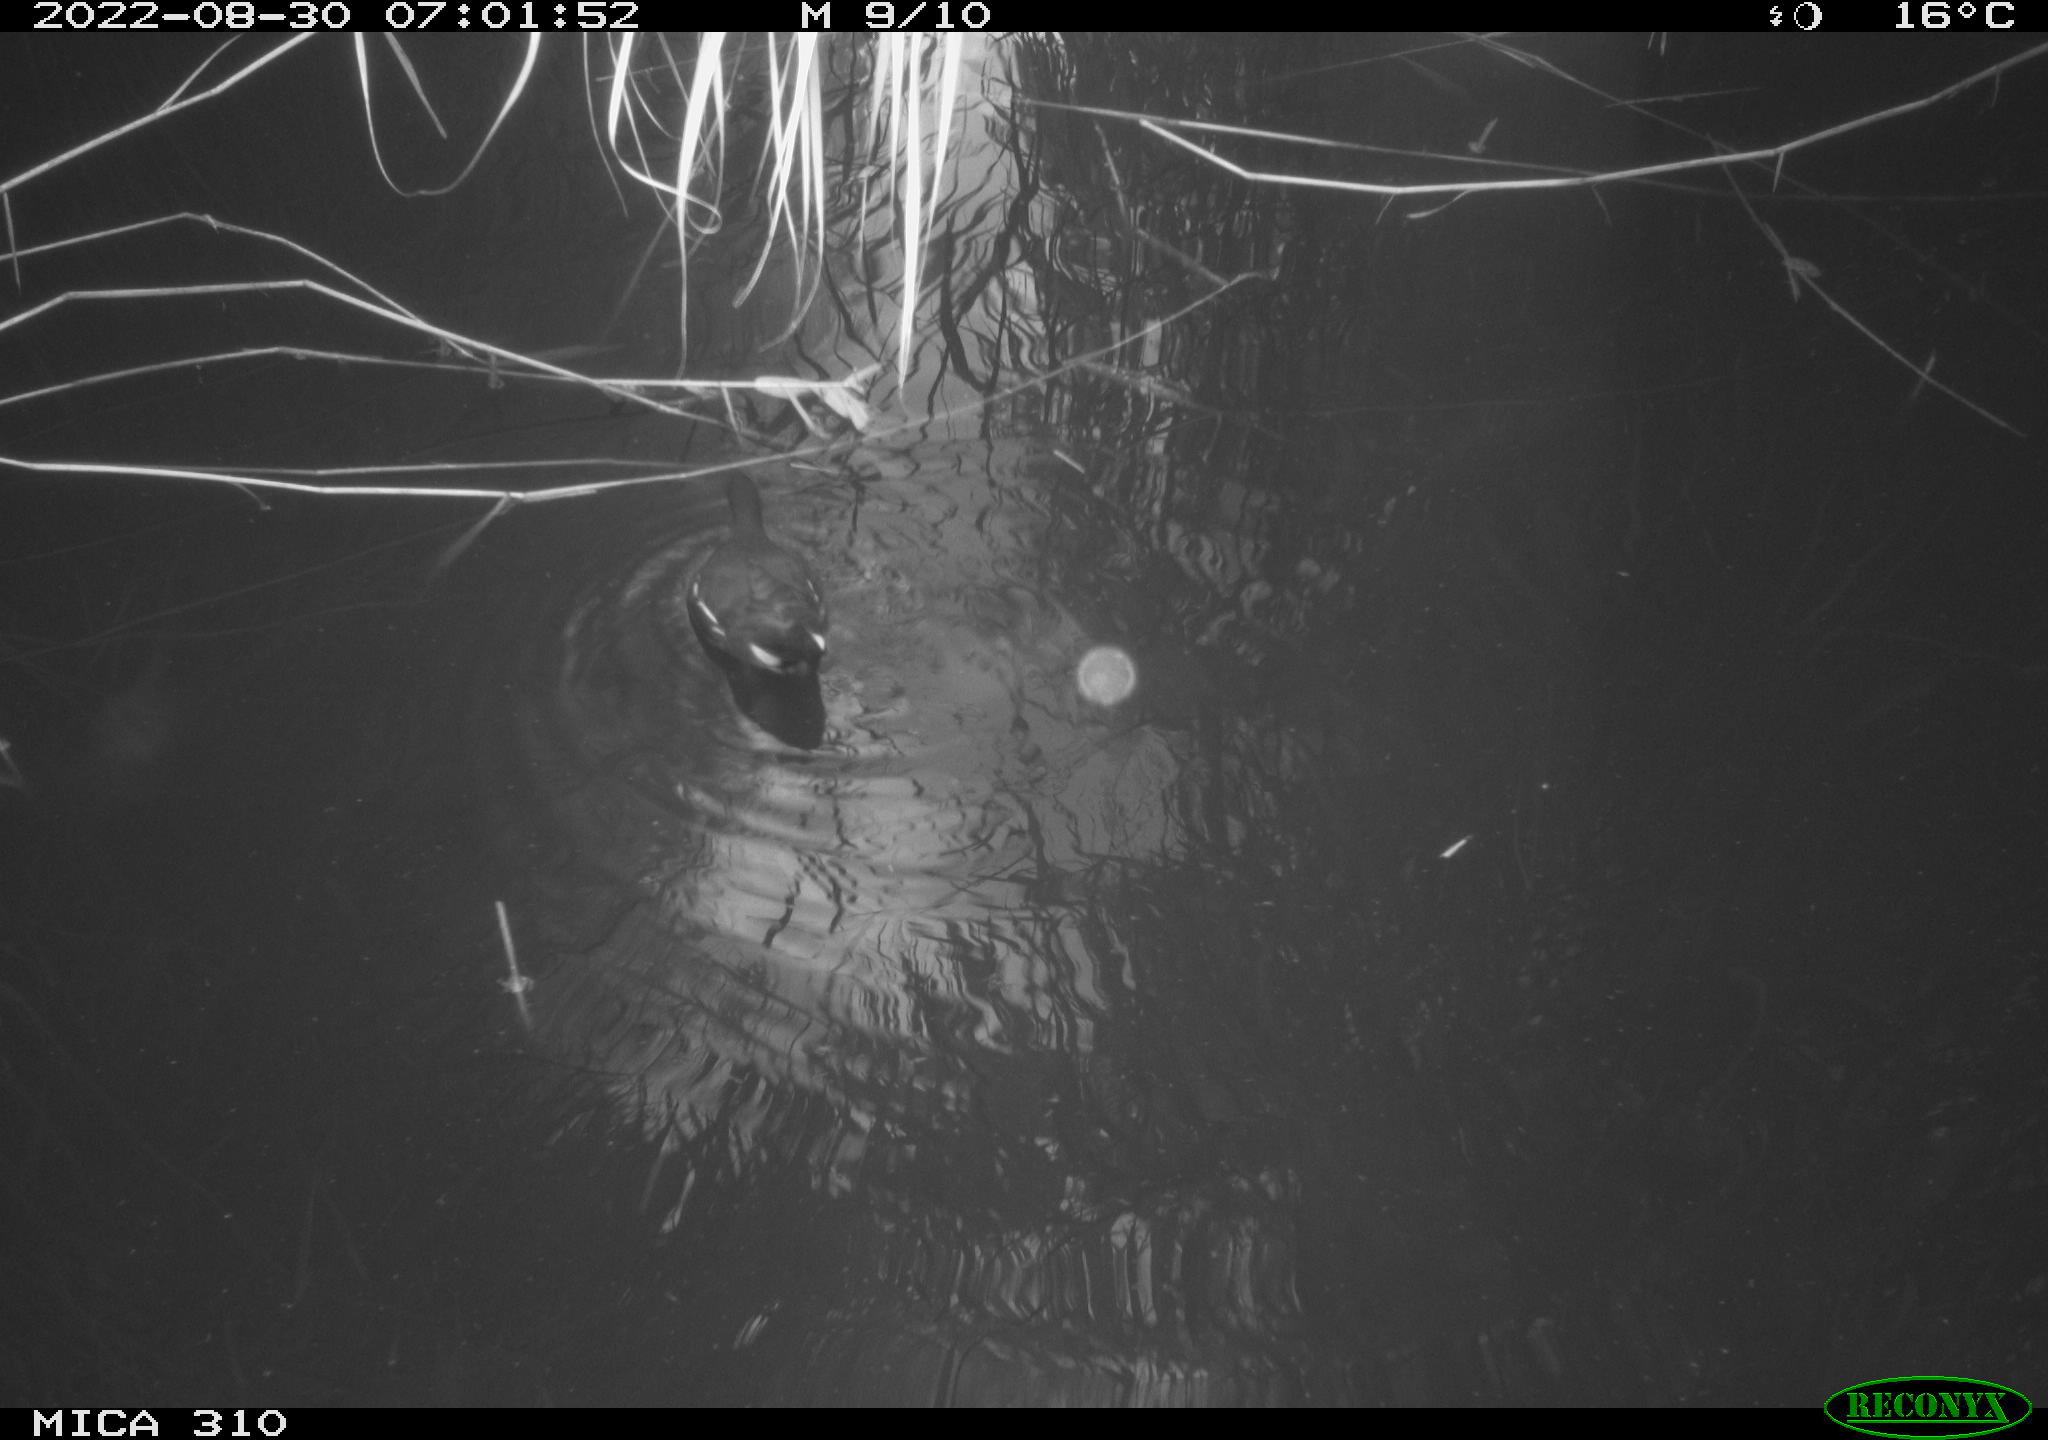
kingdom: Animalia
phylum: Chordata
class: Aves
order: Gruiformes
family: Rallidae
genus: Gallinula
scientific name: Gallinula chloropus
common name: Common moorhen
